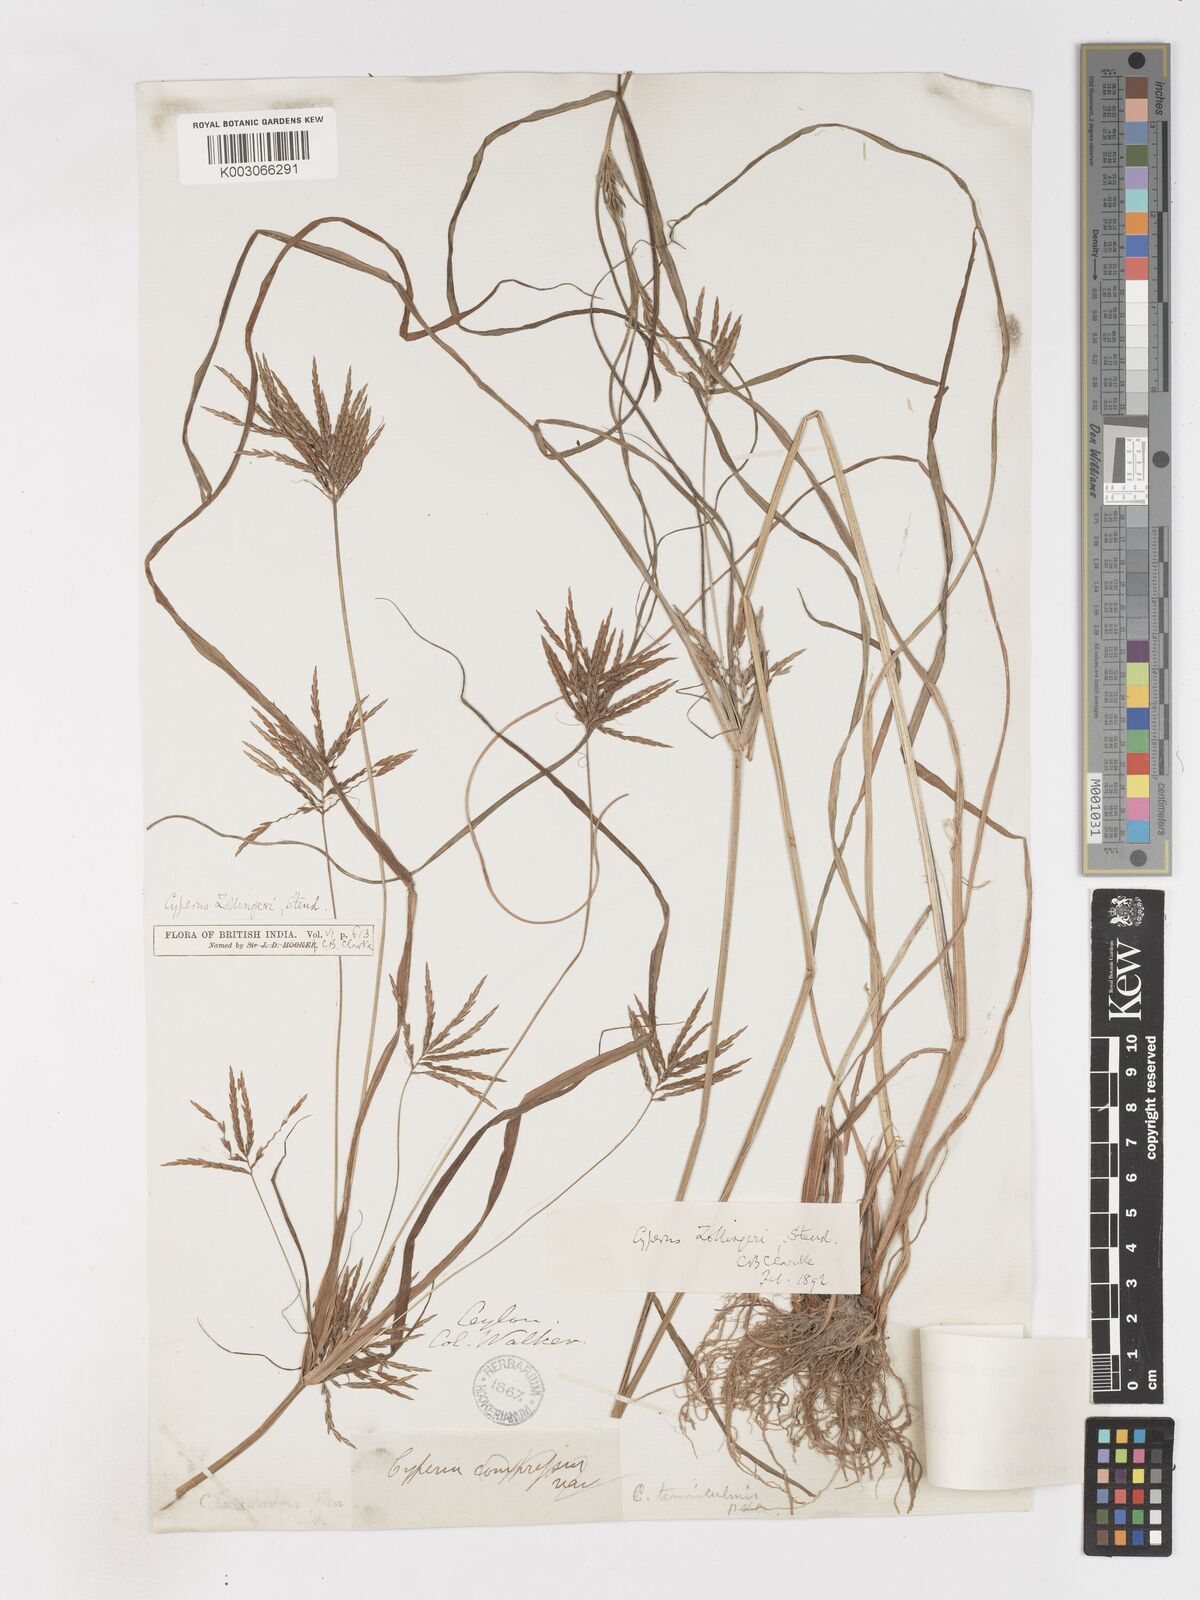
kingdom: Plantae
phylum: Tracheophyta
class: Liliopsida
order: Poales
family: Cyperaceae
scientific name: Cyperaceae
